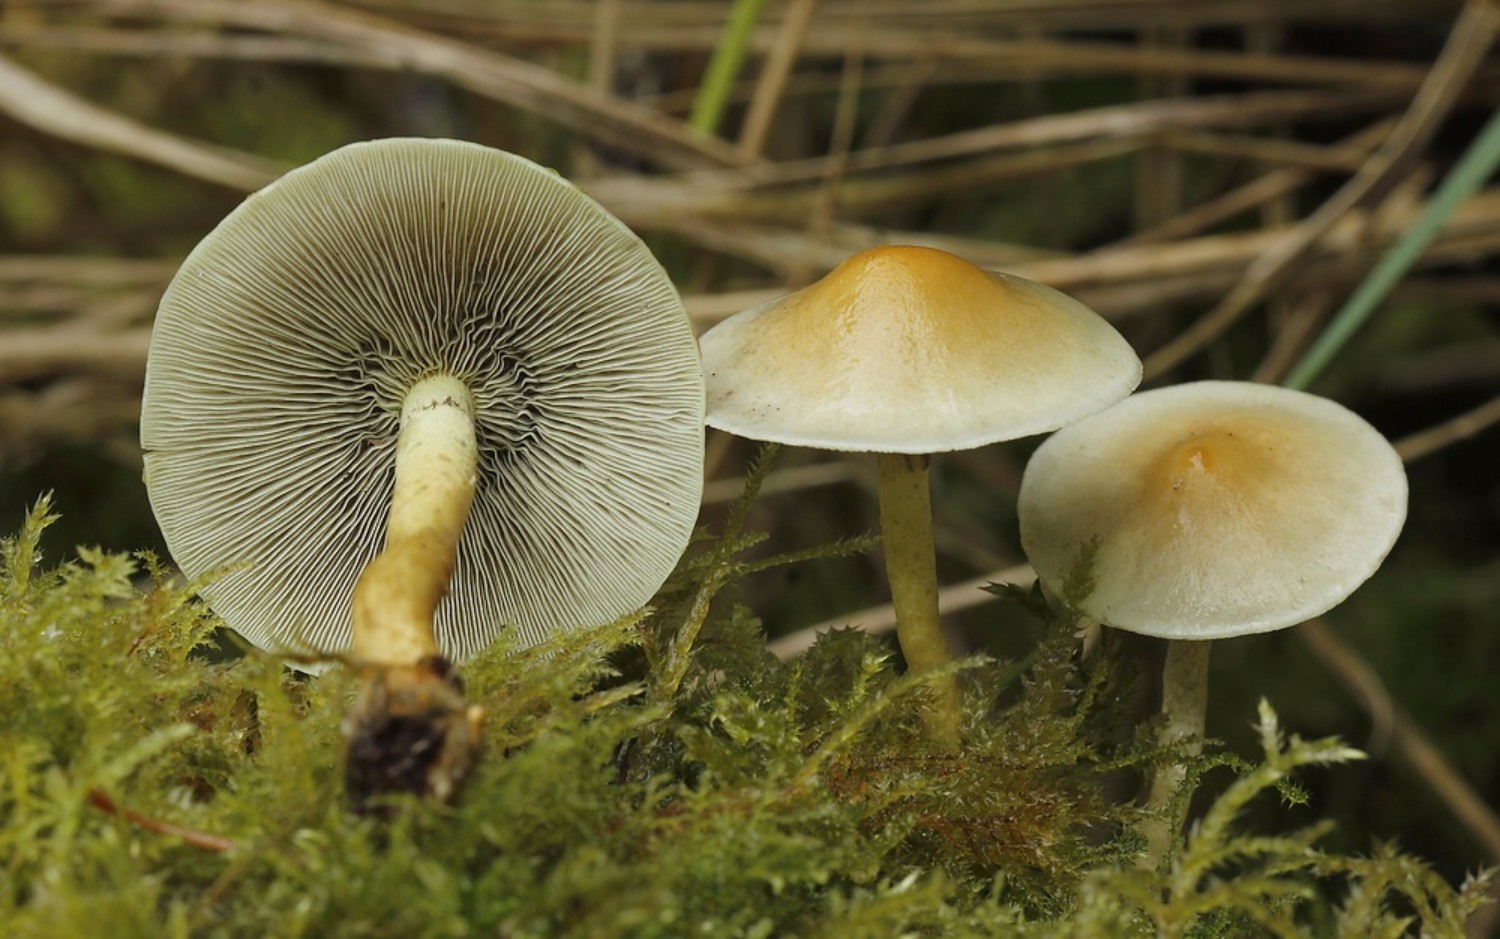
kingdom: Fungi
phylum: Basidiomycota
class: Agaricomycetes
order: Agaricales
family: Strophariaceae
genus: Hypholoma
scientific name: Hypholoma capnoides
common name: gran-svovlhat
